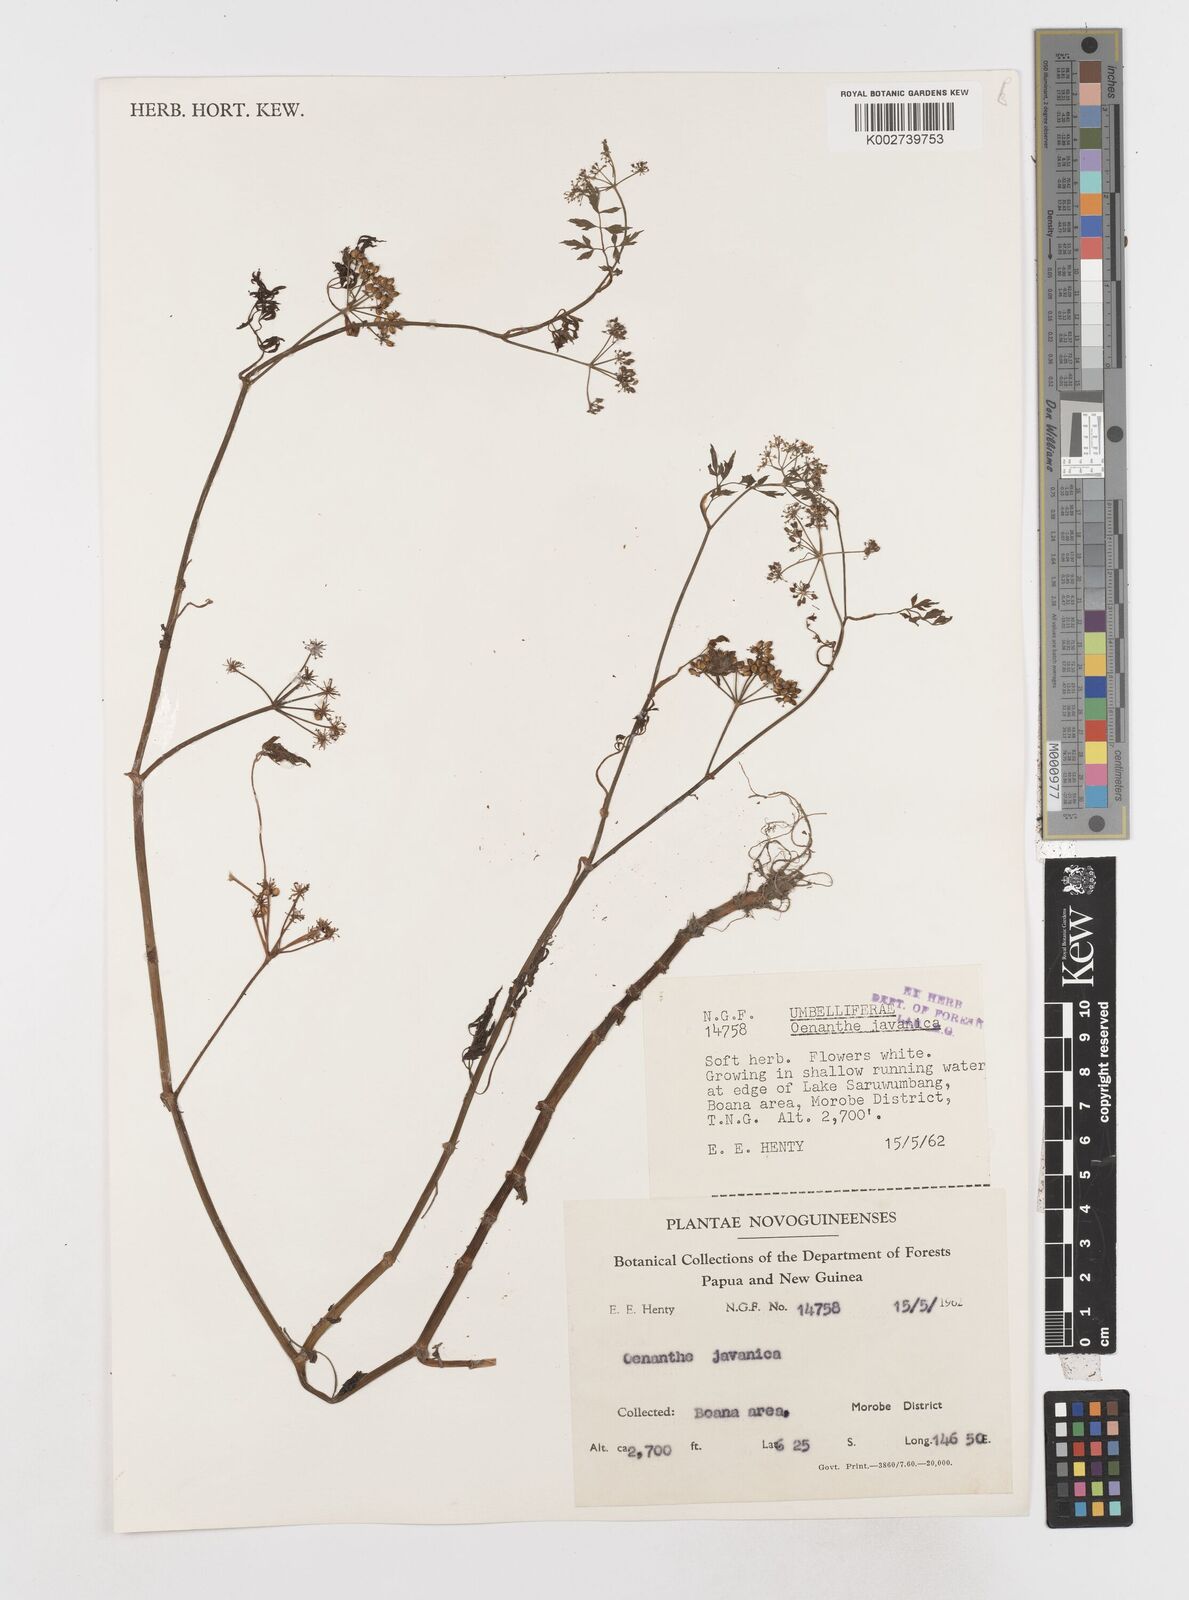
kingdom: Plantae
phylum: Tracheophyta
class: Magnoliopsida
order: Apiales
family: Apiaceae
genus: Oenanthe
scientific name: Oenanthe javanica
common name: Java water-dropwort
